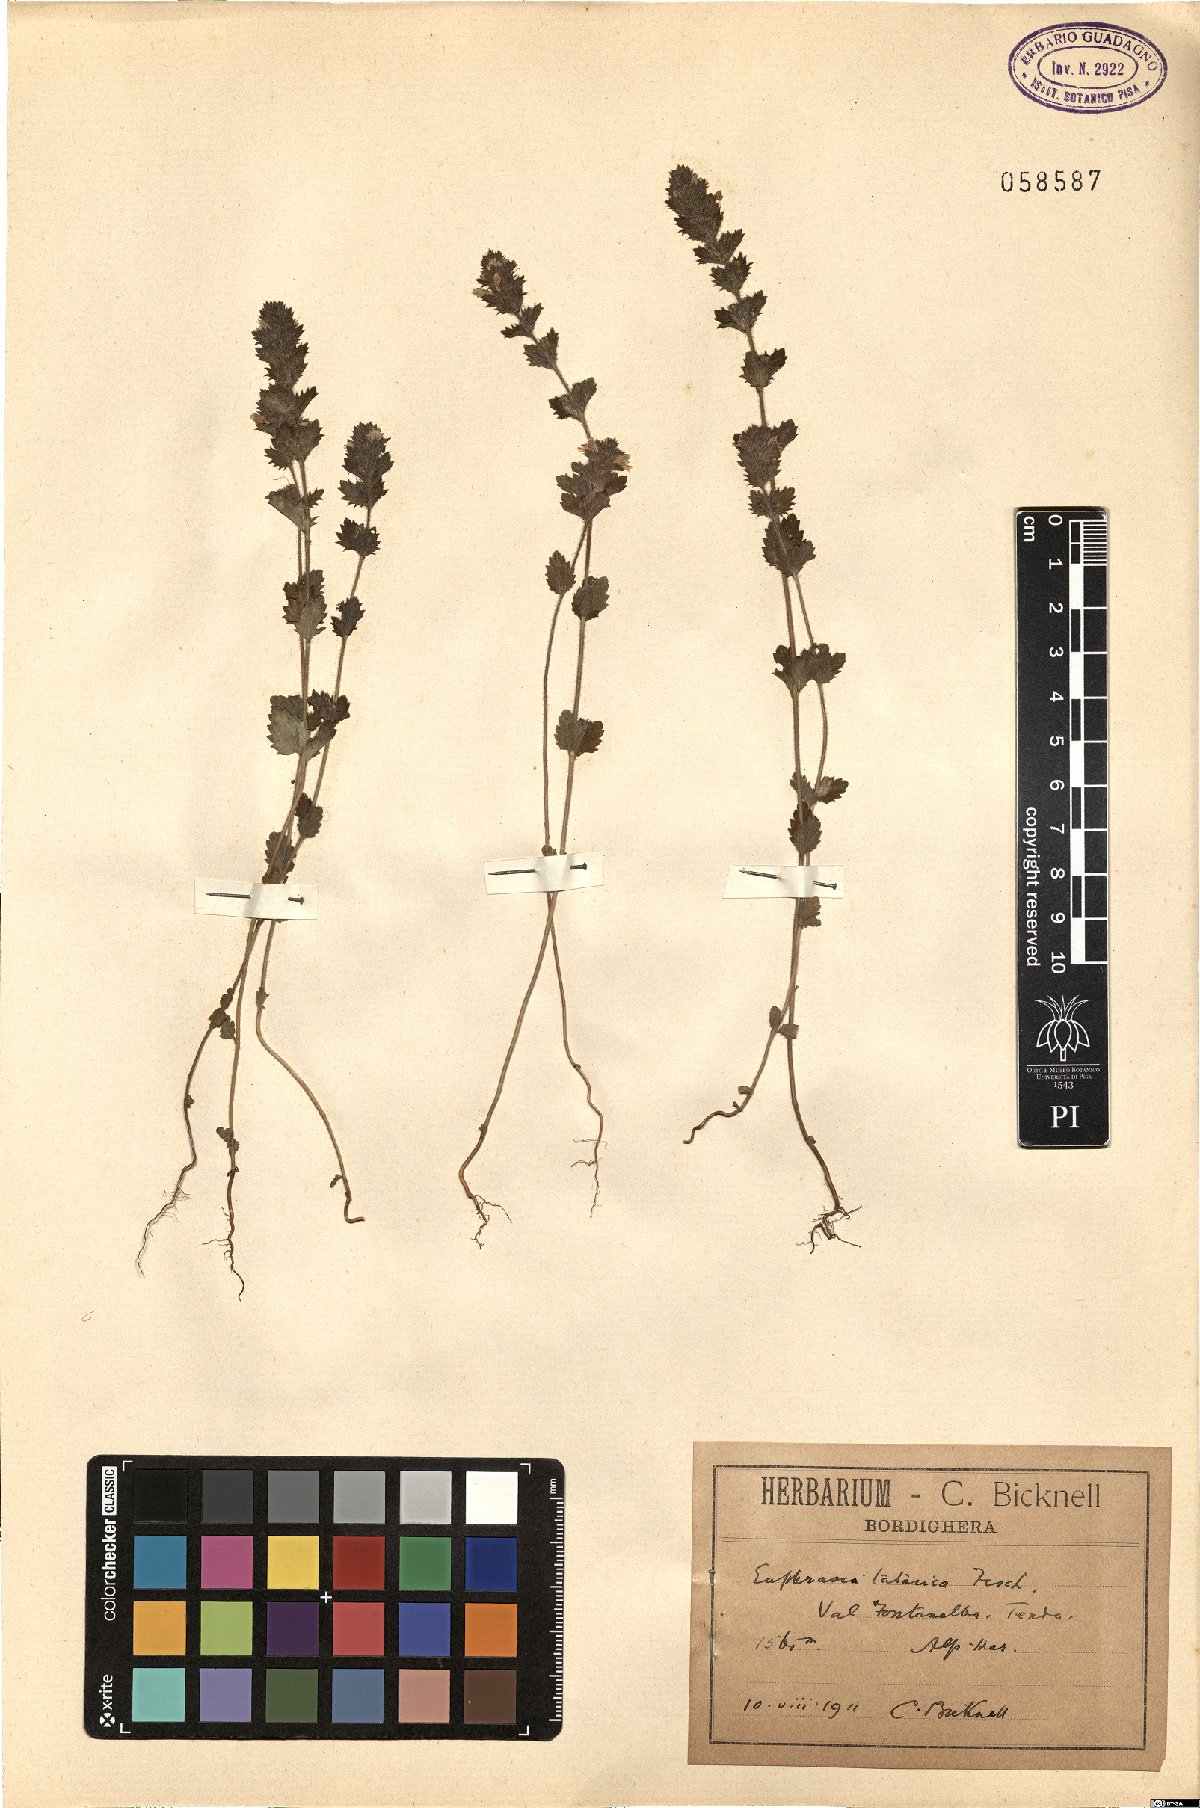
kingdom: Plantae
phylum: Tracheophyta
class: Magnoliopsida
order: Lamiales
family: Orobanchaceae
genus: Euphrasia
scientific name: Euphrasia pectinata
